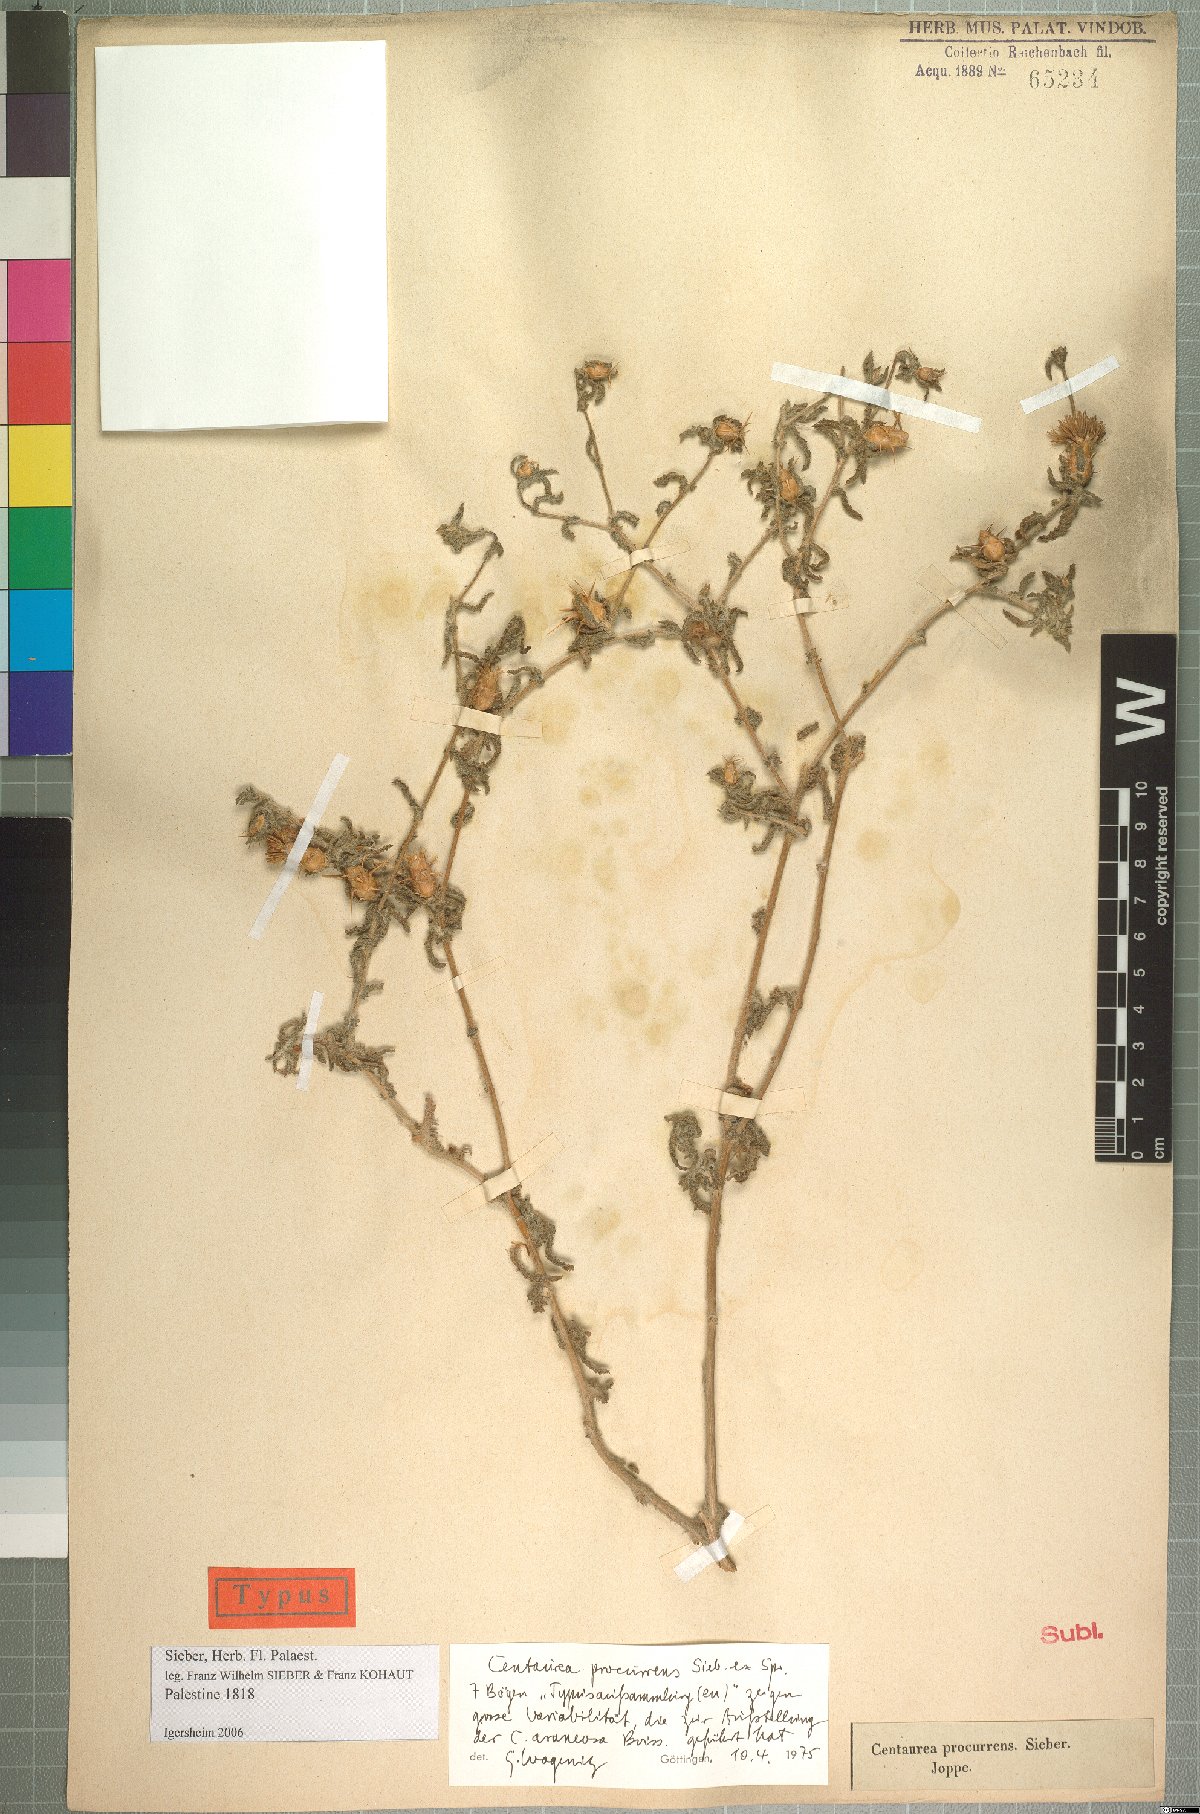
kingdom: Plantae
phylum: Tracheophyta
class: Magnoliopsida
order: Asterales
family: Asteraceae
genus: Centaurea
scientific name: Centaurea procurrens
